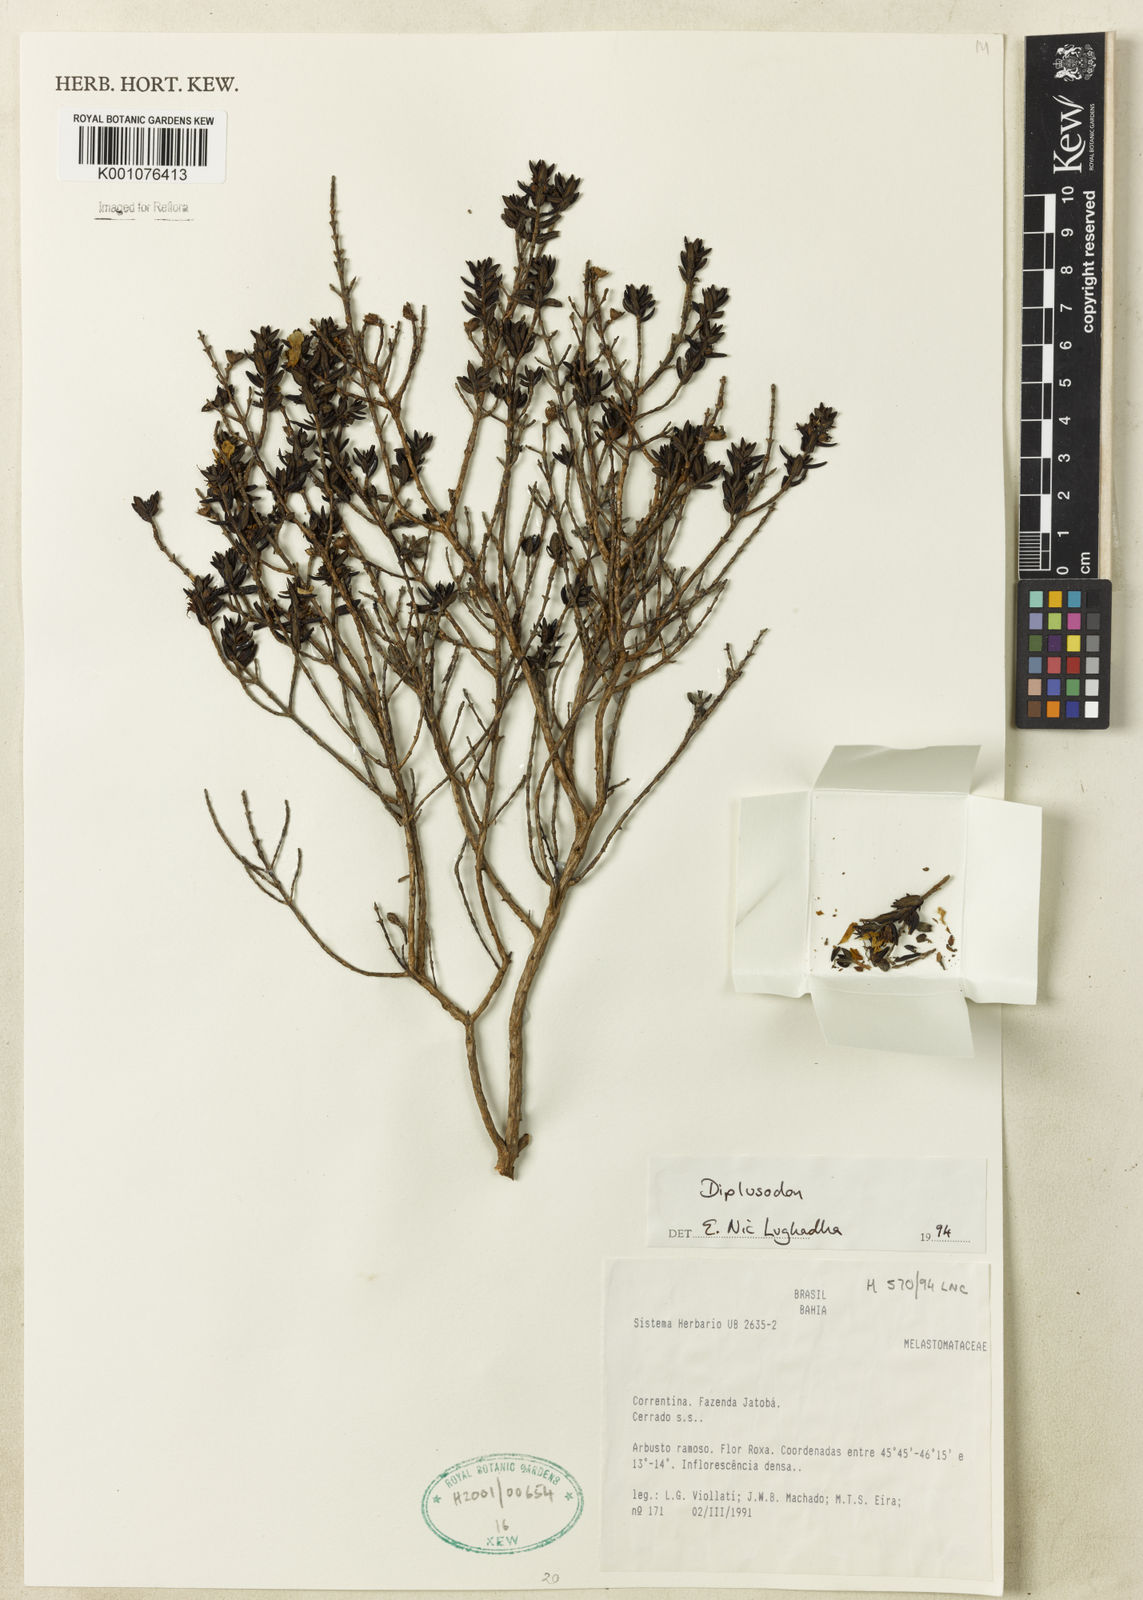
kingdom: Plantae
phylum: Tracheophyta
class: Magnoliopsida
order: Myrtales
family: Lythraceae
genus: Diplusodon
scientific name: Diplusodon
